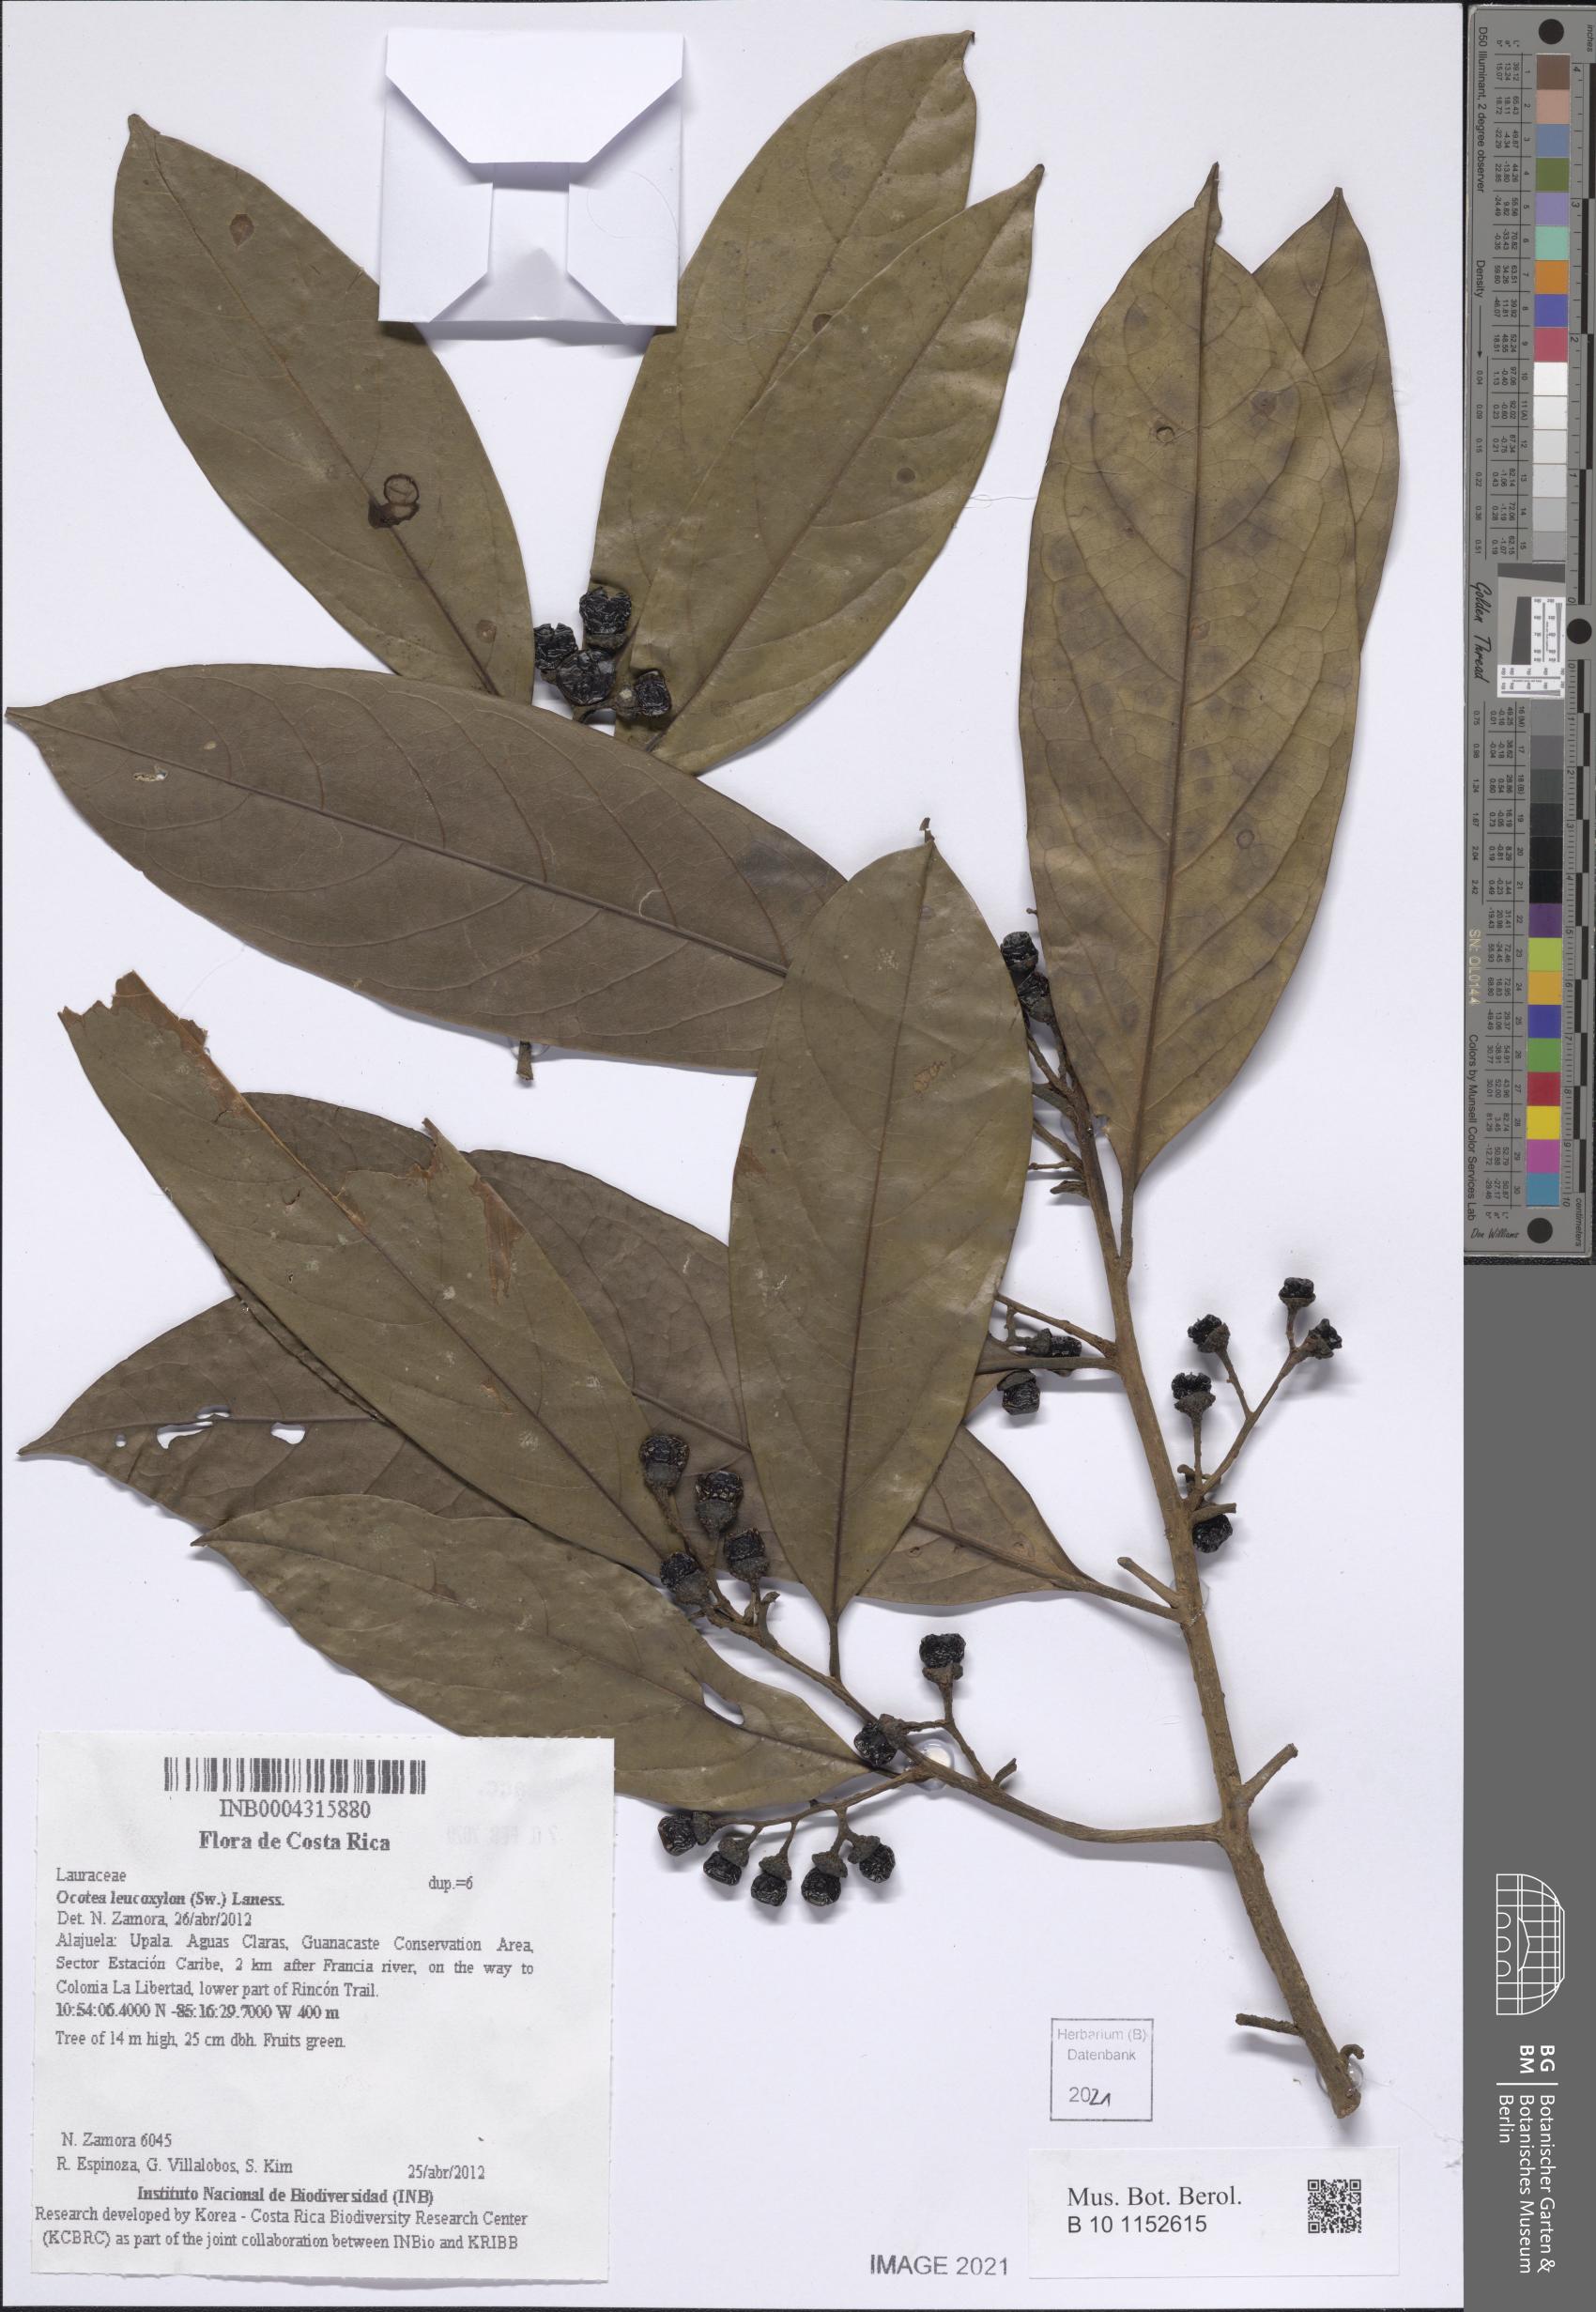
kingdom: Plantae
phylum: Tracheophyta
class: Magnoliopsida
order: Laurales
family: Lauraceae
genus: Ocotea
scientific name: Ocotea leucoxylon
